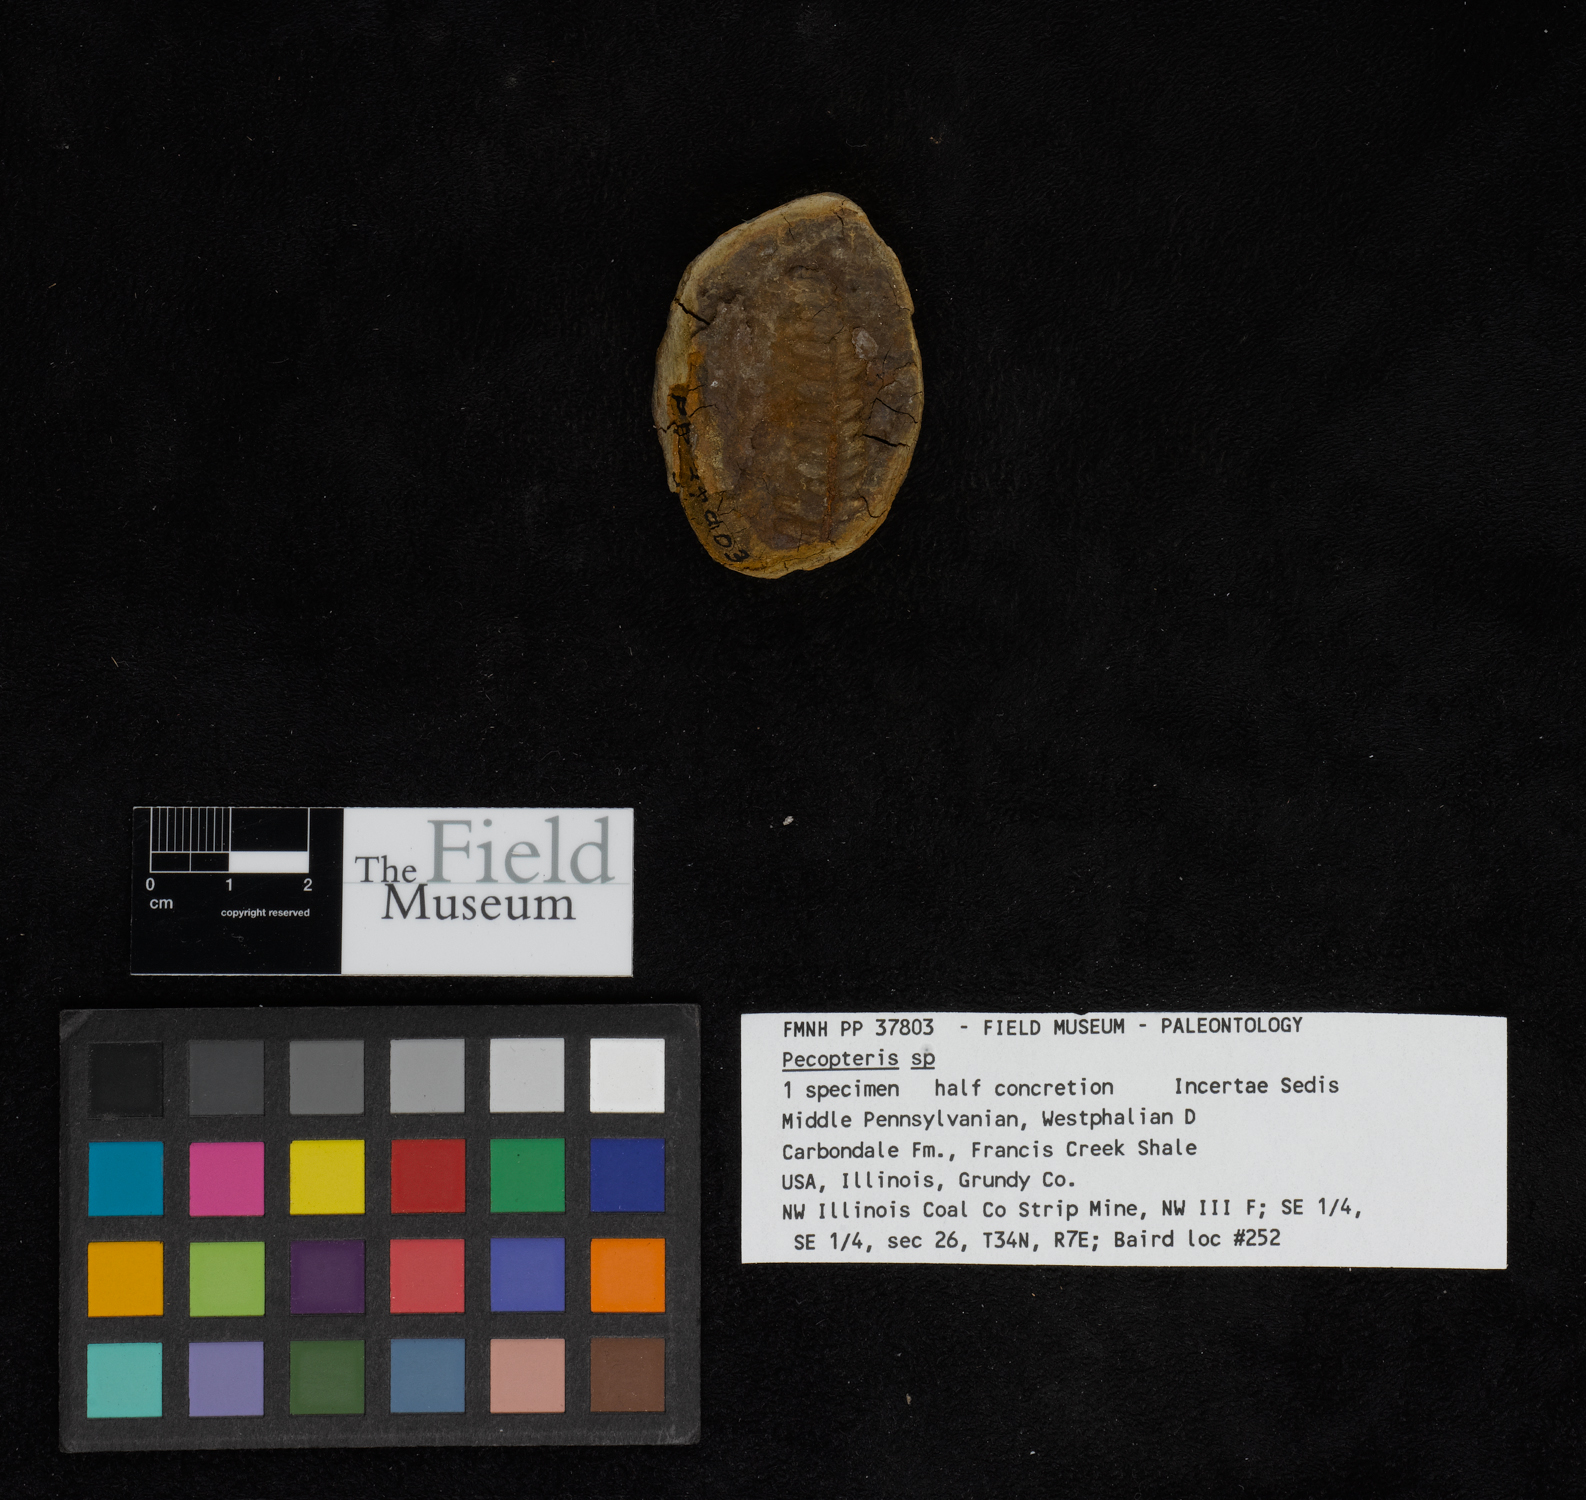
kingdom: Plantae
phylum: Tracheophyta
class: Polypodiopsida
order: Marattiales
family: Asterothecaceae
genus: Pecopteris
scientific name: Pecopteris
